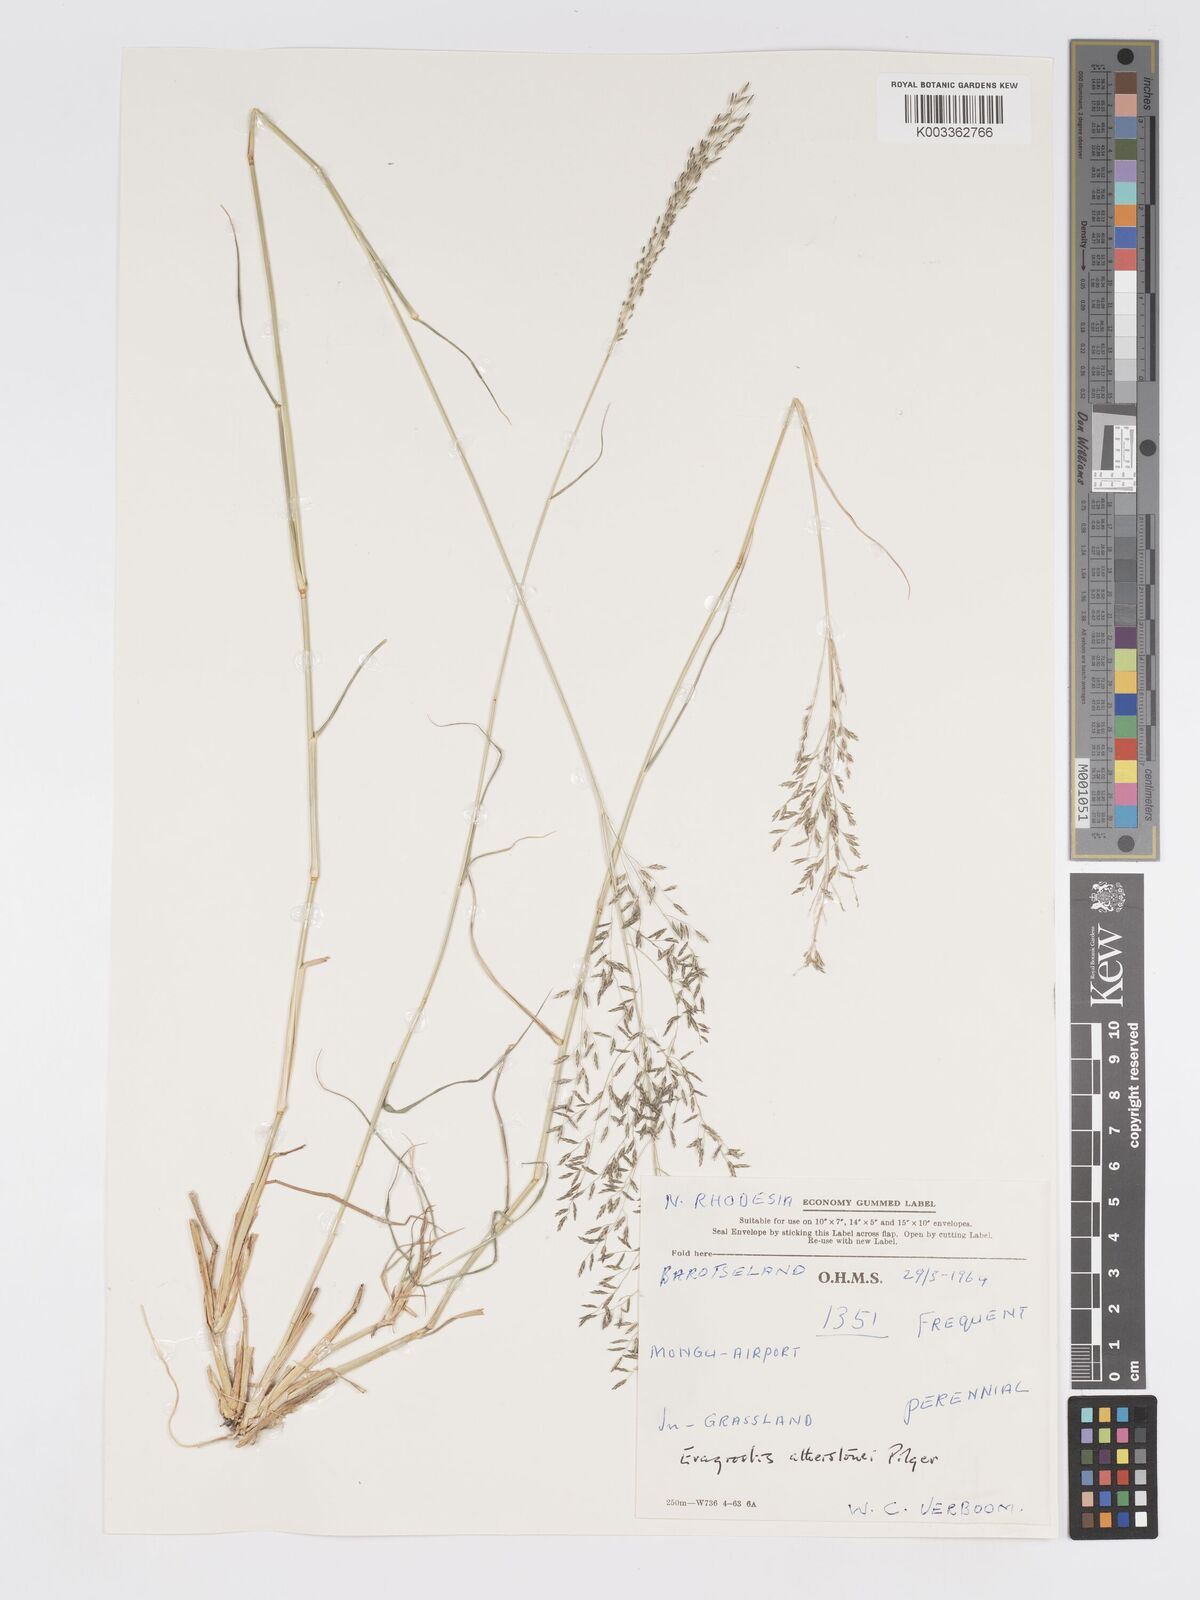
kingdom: Plantae
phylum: Tracheophyta
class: Liliopsida
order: Poales
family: Poaceae
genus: Eragrostis
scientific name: Eragrostis cylindriflora
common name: Cylinderflower lovegrass
